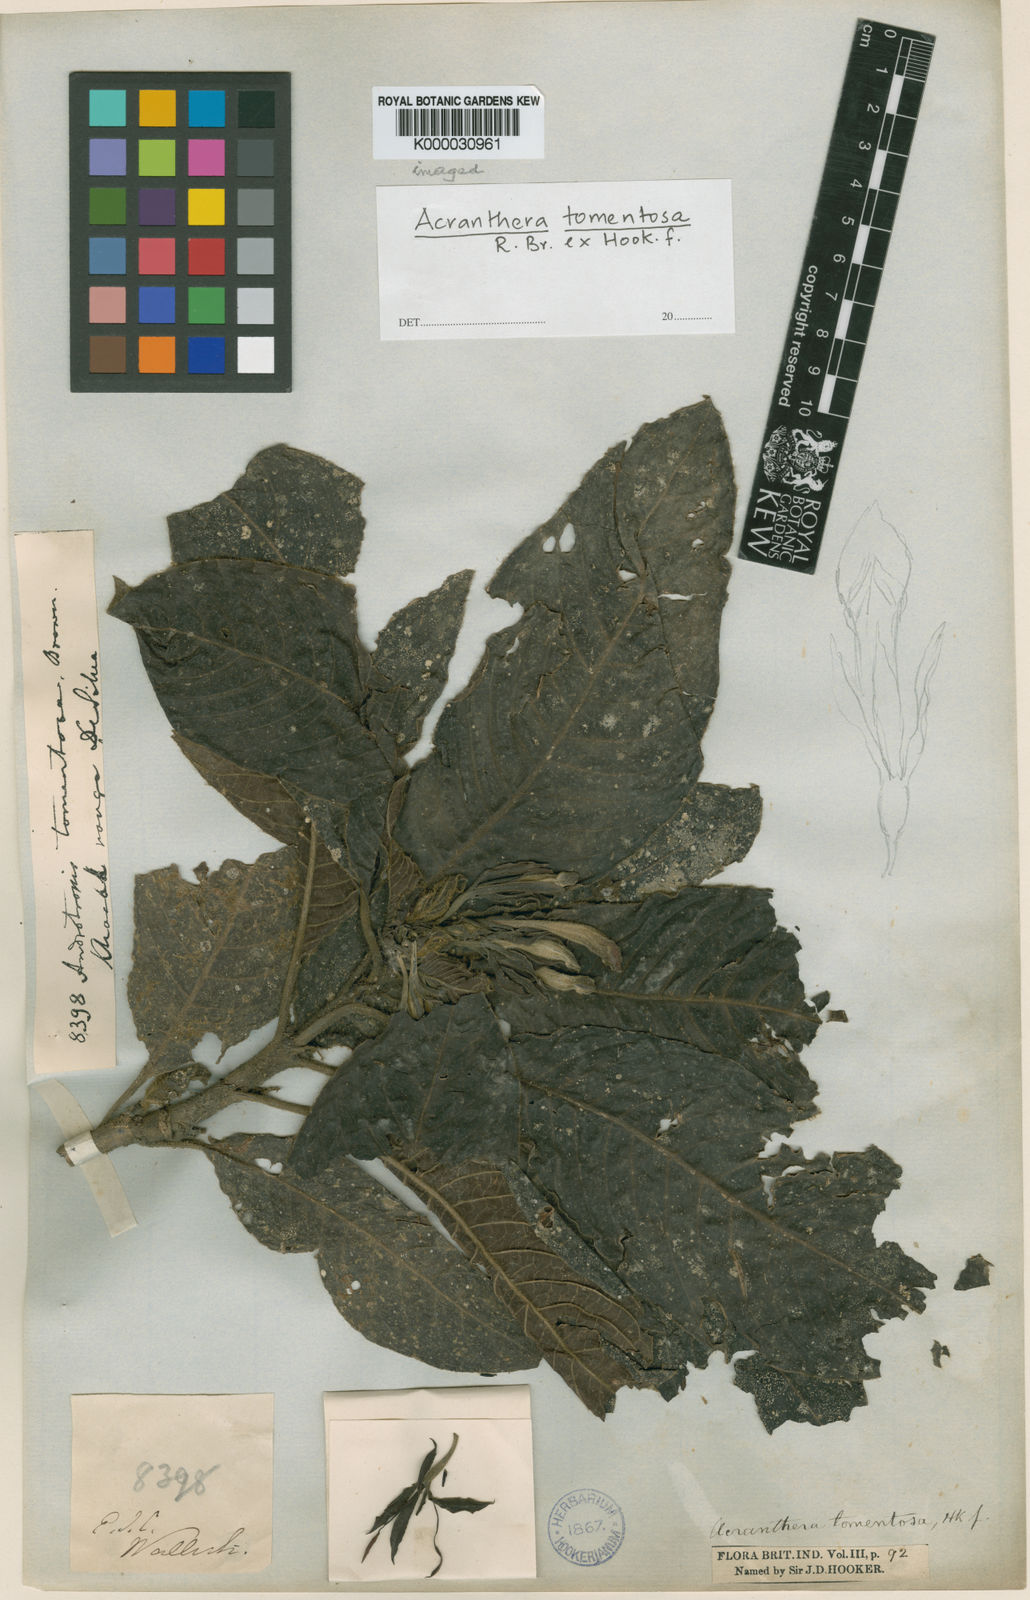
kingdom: Plantae
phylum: Tracheophyta
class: Magnoliopsida
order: Gentianales
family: Rubiaceae
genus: Acranthera
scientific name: Acranthera tomentosa
